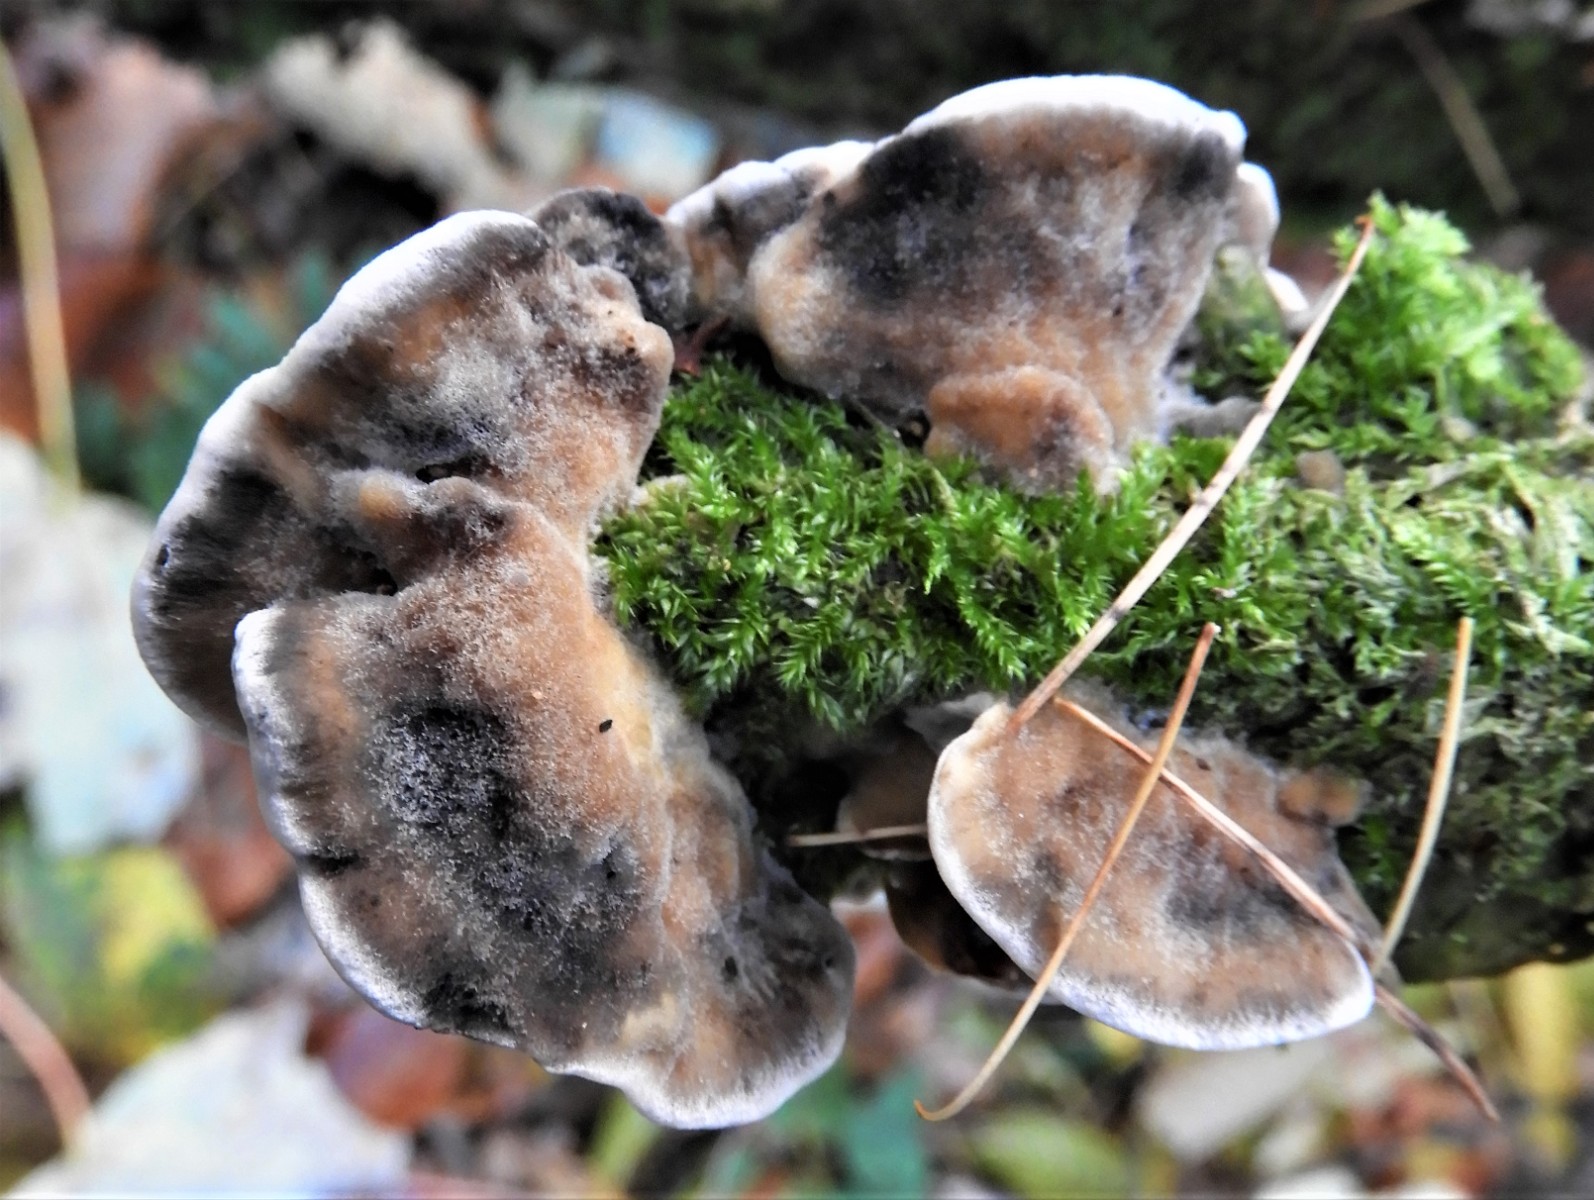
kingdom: Fungi
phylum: Basidiomycota
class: Agaricomycetes
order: Polyporales
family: Phanerochaetaceae
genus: Bjerkandera
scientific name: Bjerkandera adusta
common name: sveden sodporesvamp
